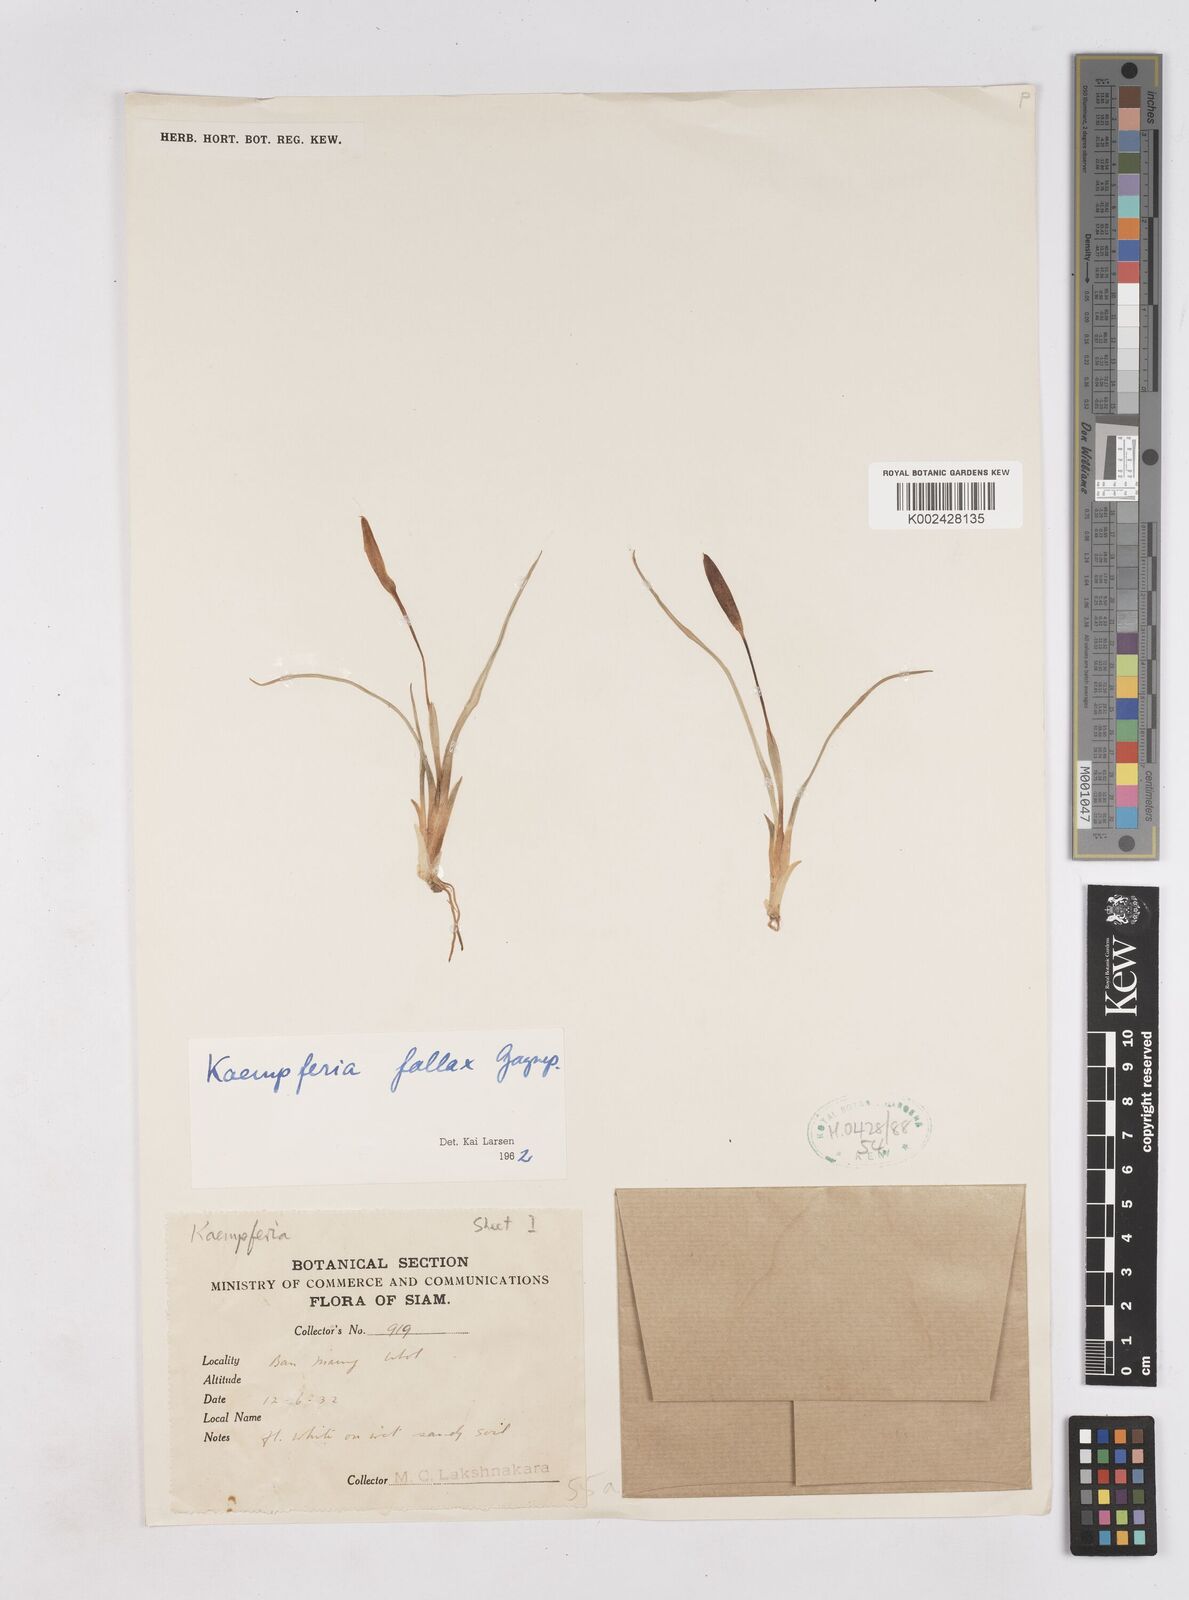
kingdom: Plantae
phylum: Tracheophyta
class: Liliopsida
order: Zingiberales
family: Zingiberaceae
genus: Kaempferia
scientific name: Kaempferia fallax
